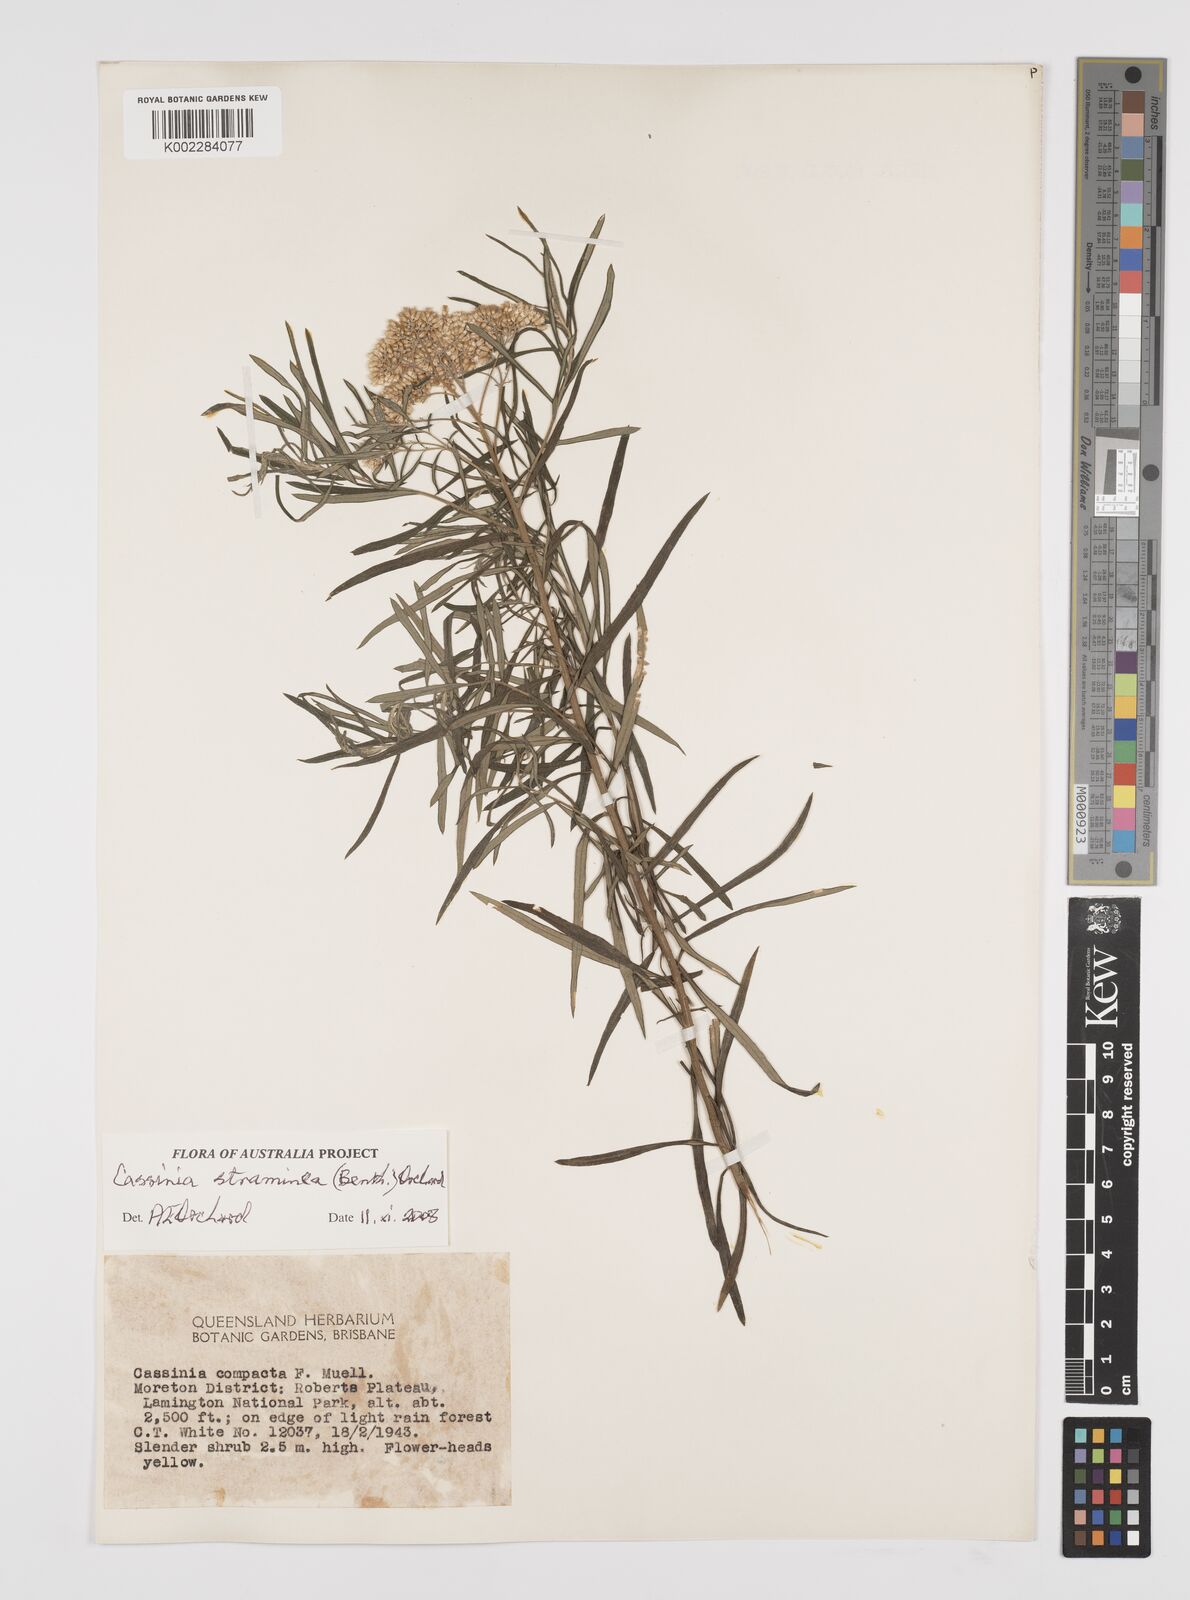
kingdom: Plantae
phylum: Tracheophyta
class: Magnoliopsida
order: Asterales
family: Asteraceae
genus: Cassinia
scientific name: Cassinia straminea
